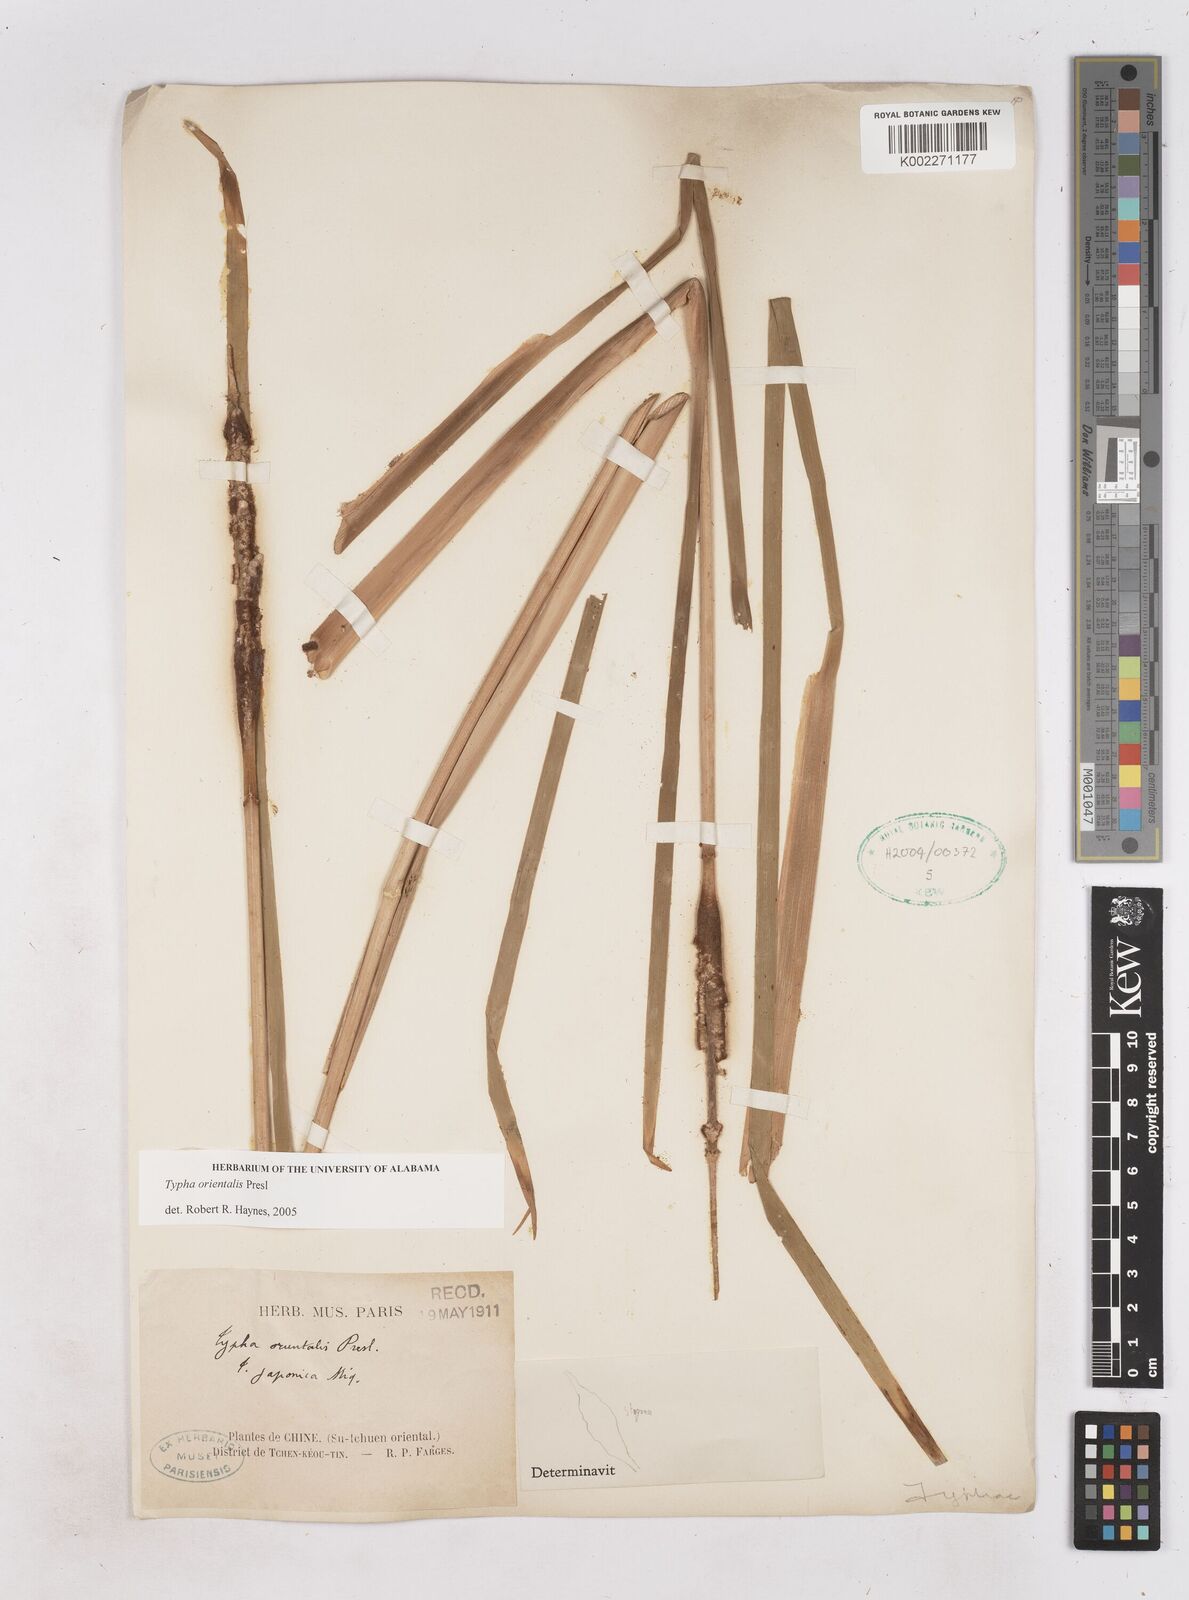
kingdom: Plantae
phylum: Tracheophyta
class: Liliopsida
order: Poales
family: Typhaceae
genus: Typha
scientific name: Typha shuttleworthii
